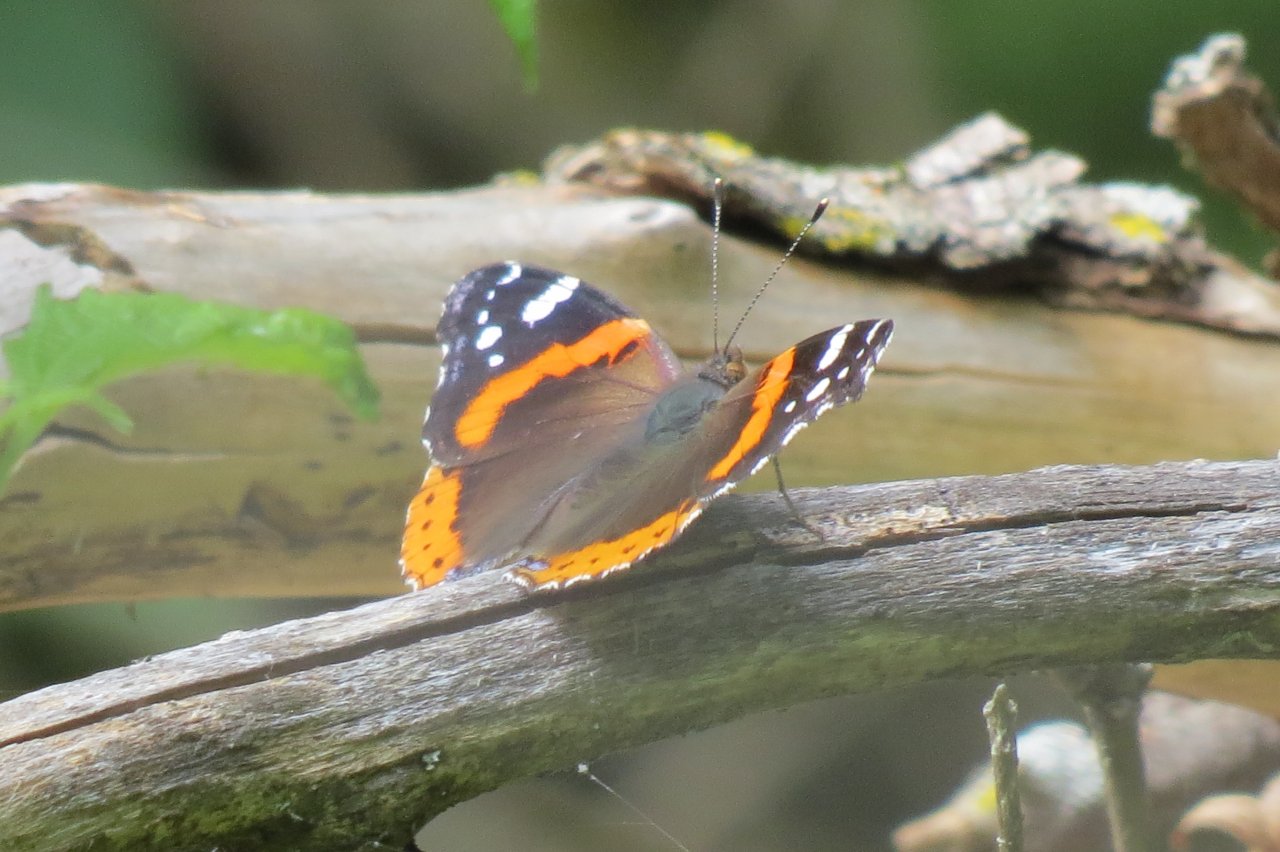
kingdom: Animalia
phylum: Arthropoda
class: Insecta
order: Lepidoptera
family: Nymphalidae
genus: Vanessa
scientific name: Vanessa atalanta
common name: Red Admiral
